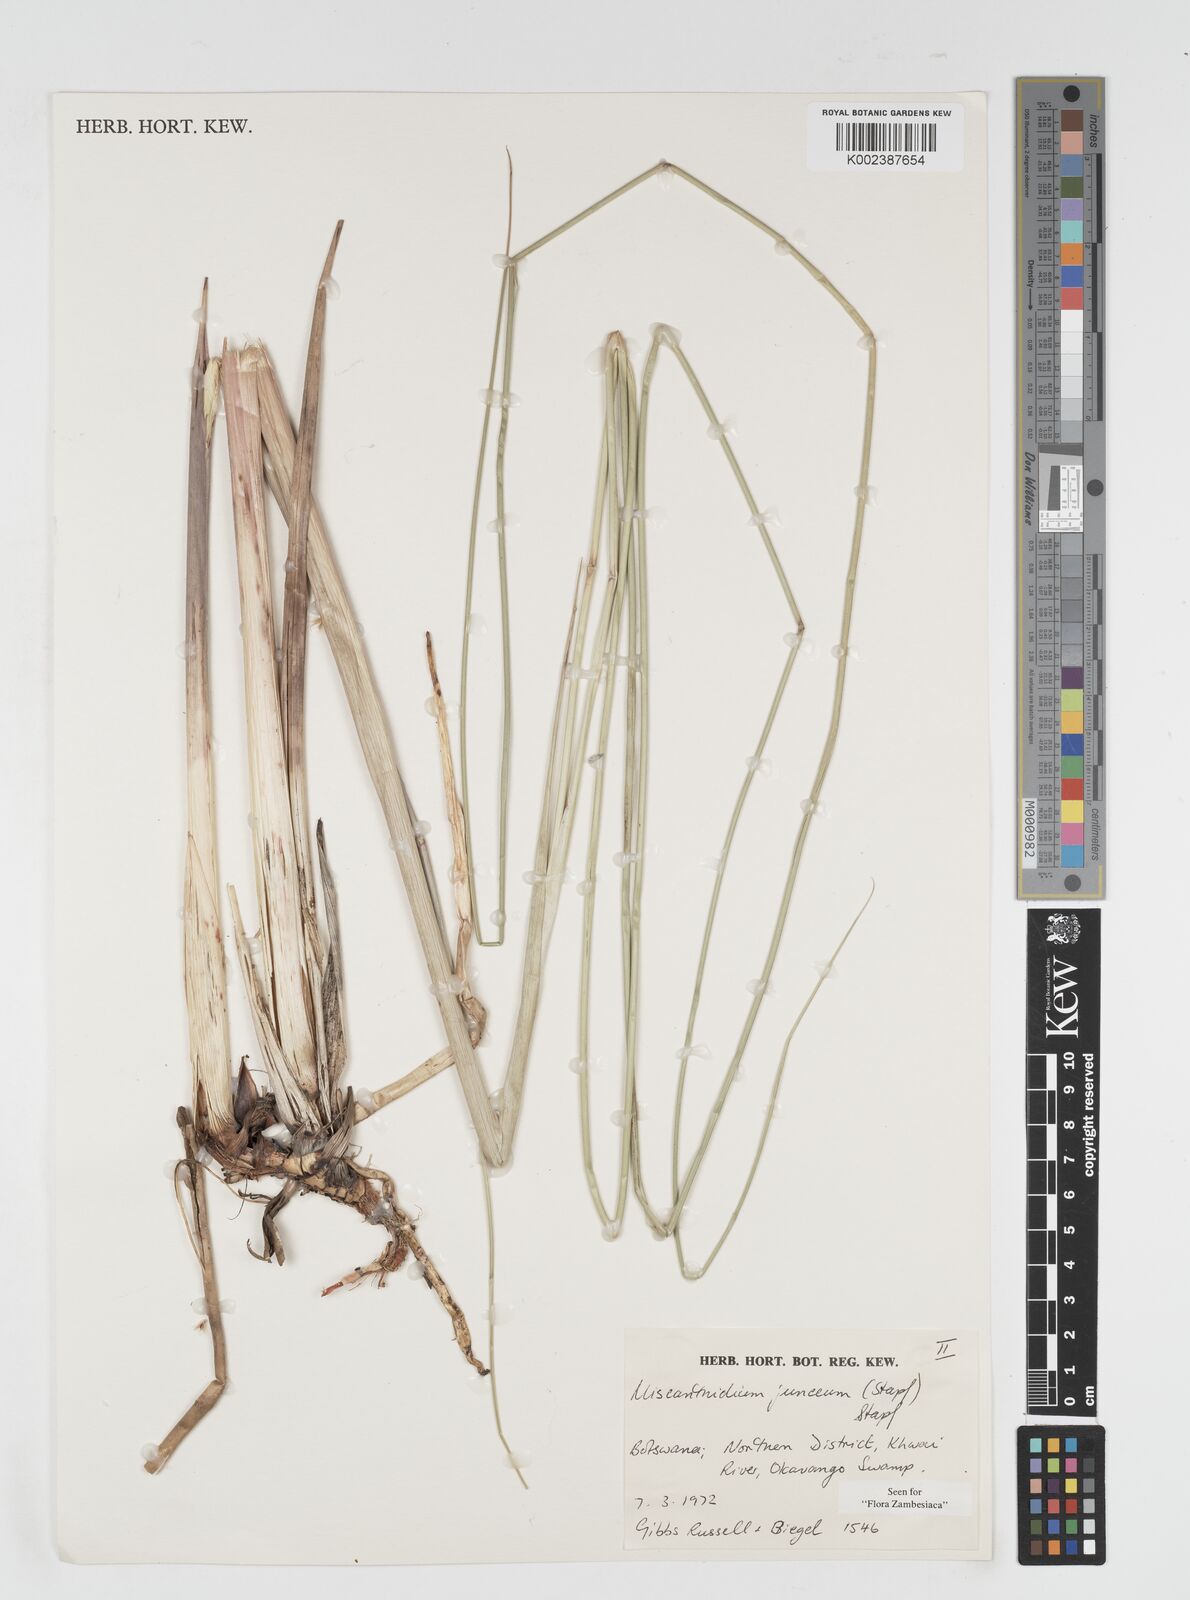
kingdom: Plantae
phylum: Tracheophyta
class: Liliopsida
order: Poales
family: Poaceae
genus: Miscanthidium
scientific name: Miscanthidium junceum
